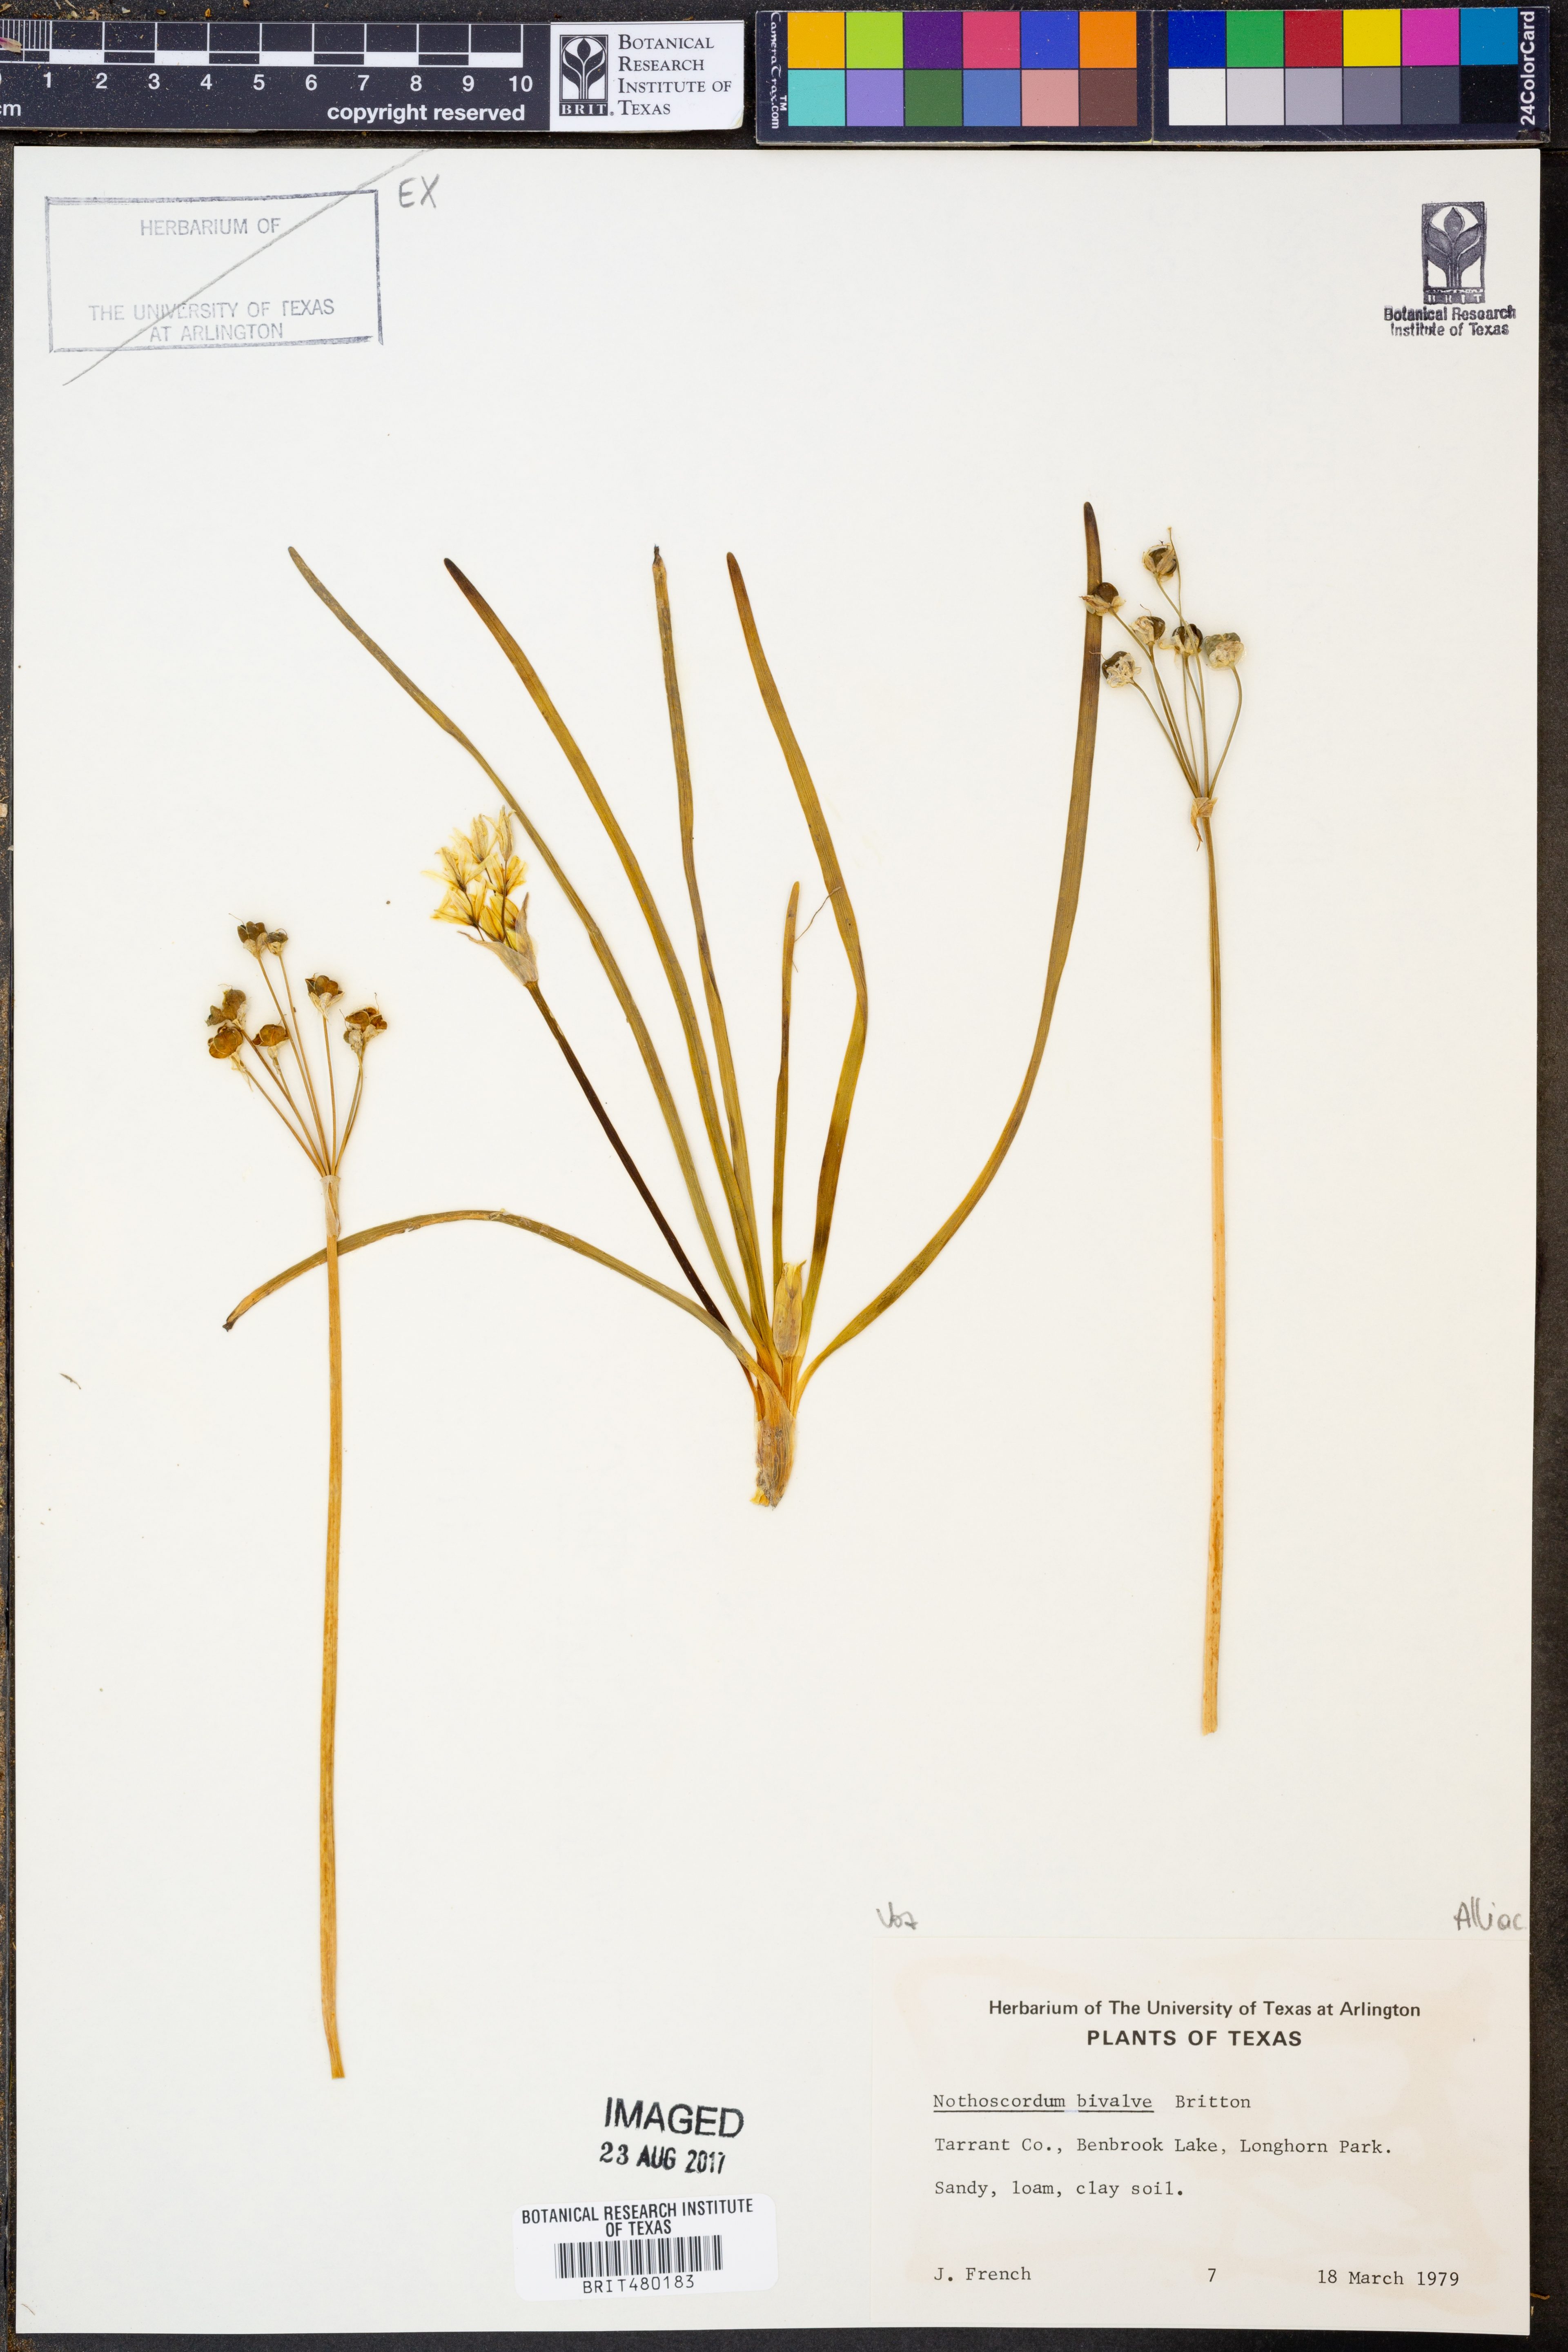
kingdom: Plantae
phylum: Tracheophyta
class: Liliopsida
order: Asparagales
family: Amaryllidaceae
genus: Nothoscordum
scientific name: Nothoscordum bivalve
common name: Crow-poison
